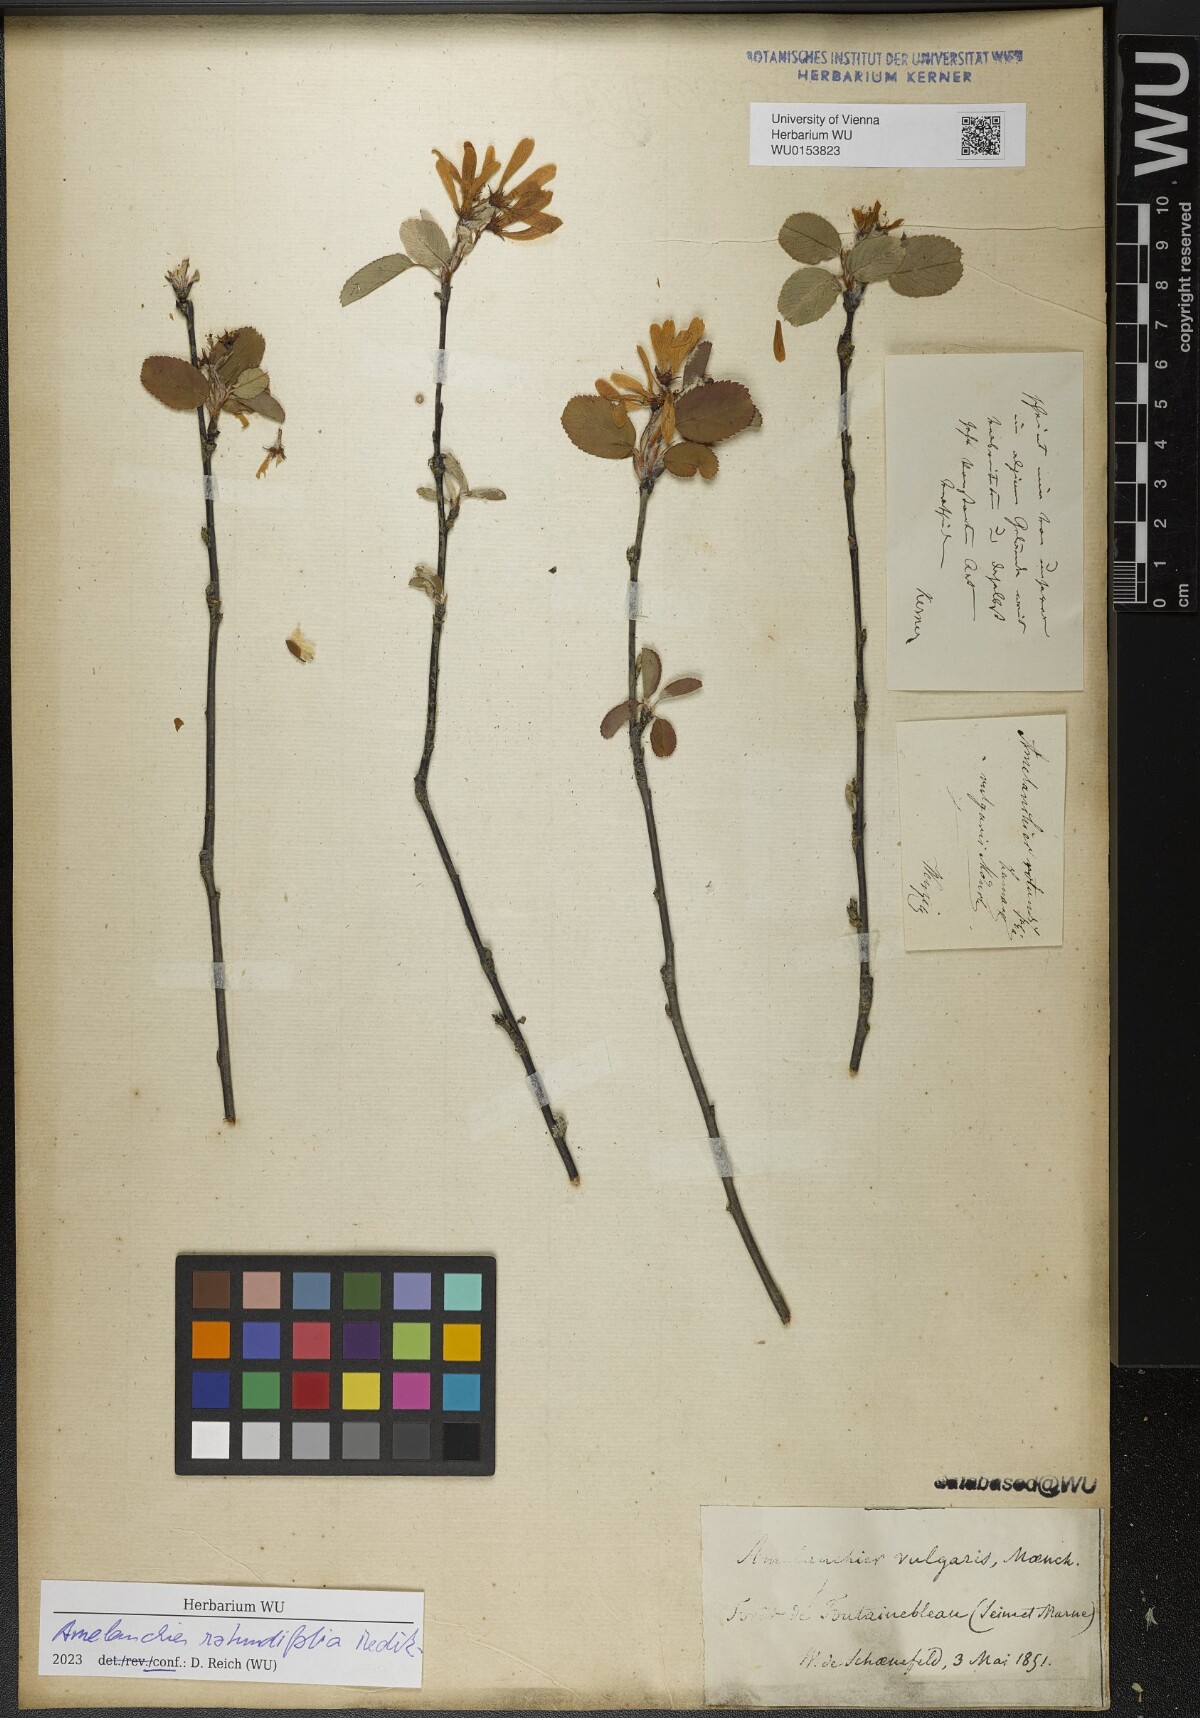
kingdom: Plantae
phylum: Tracheophyta
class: Magnoliopsida
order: Rosales
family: Rosaceae
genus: Amelanchier
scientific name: Amelanchier ovalis
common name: Serviceberry
